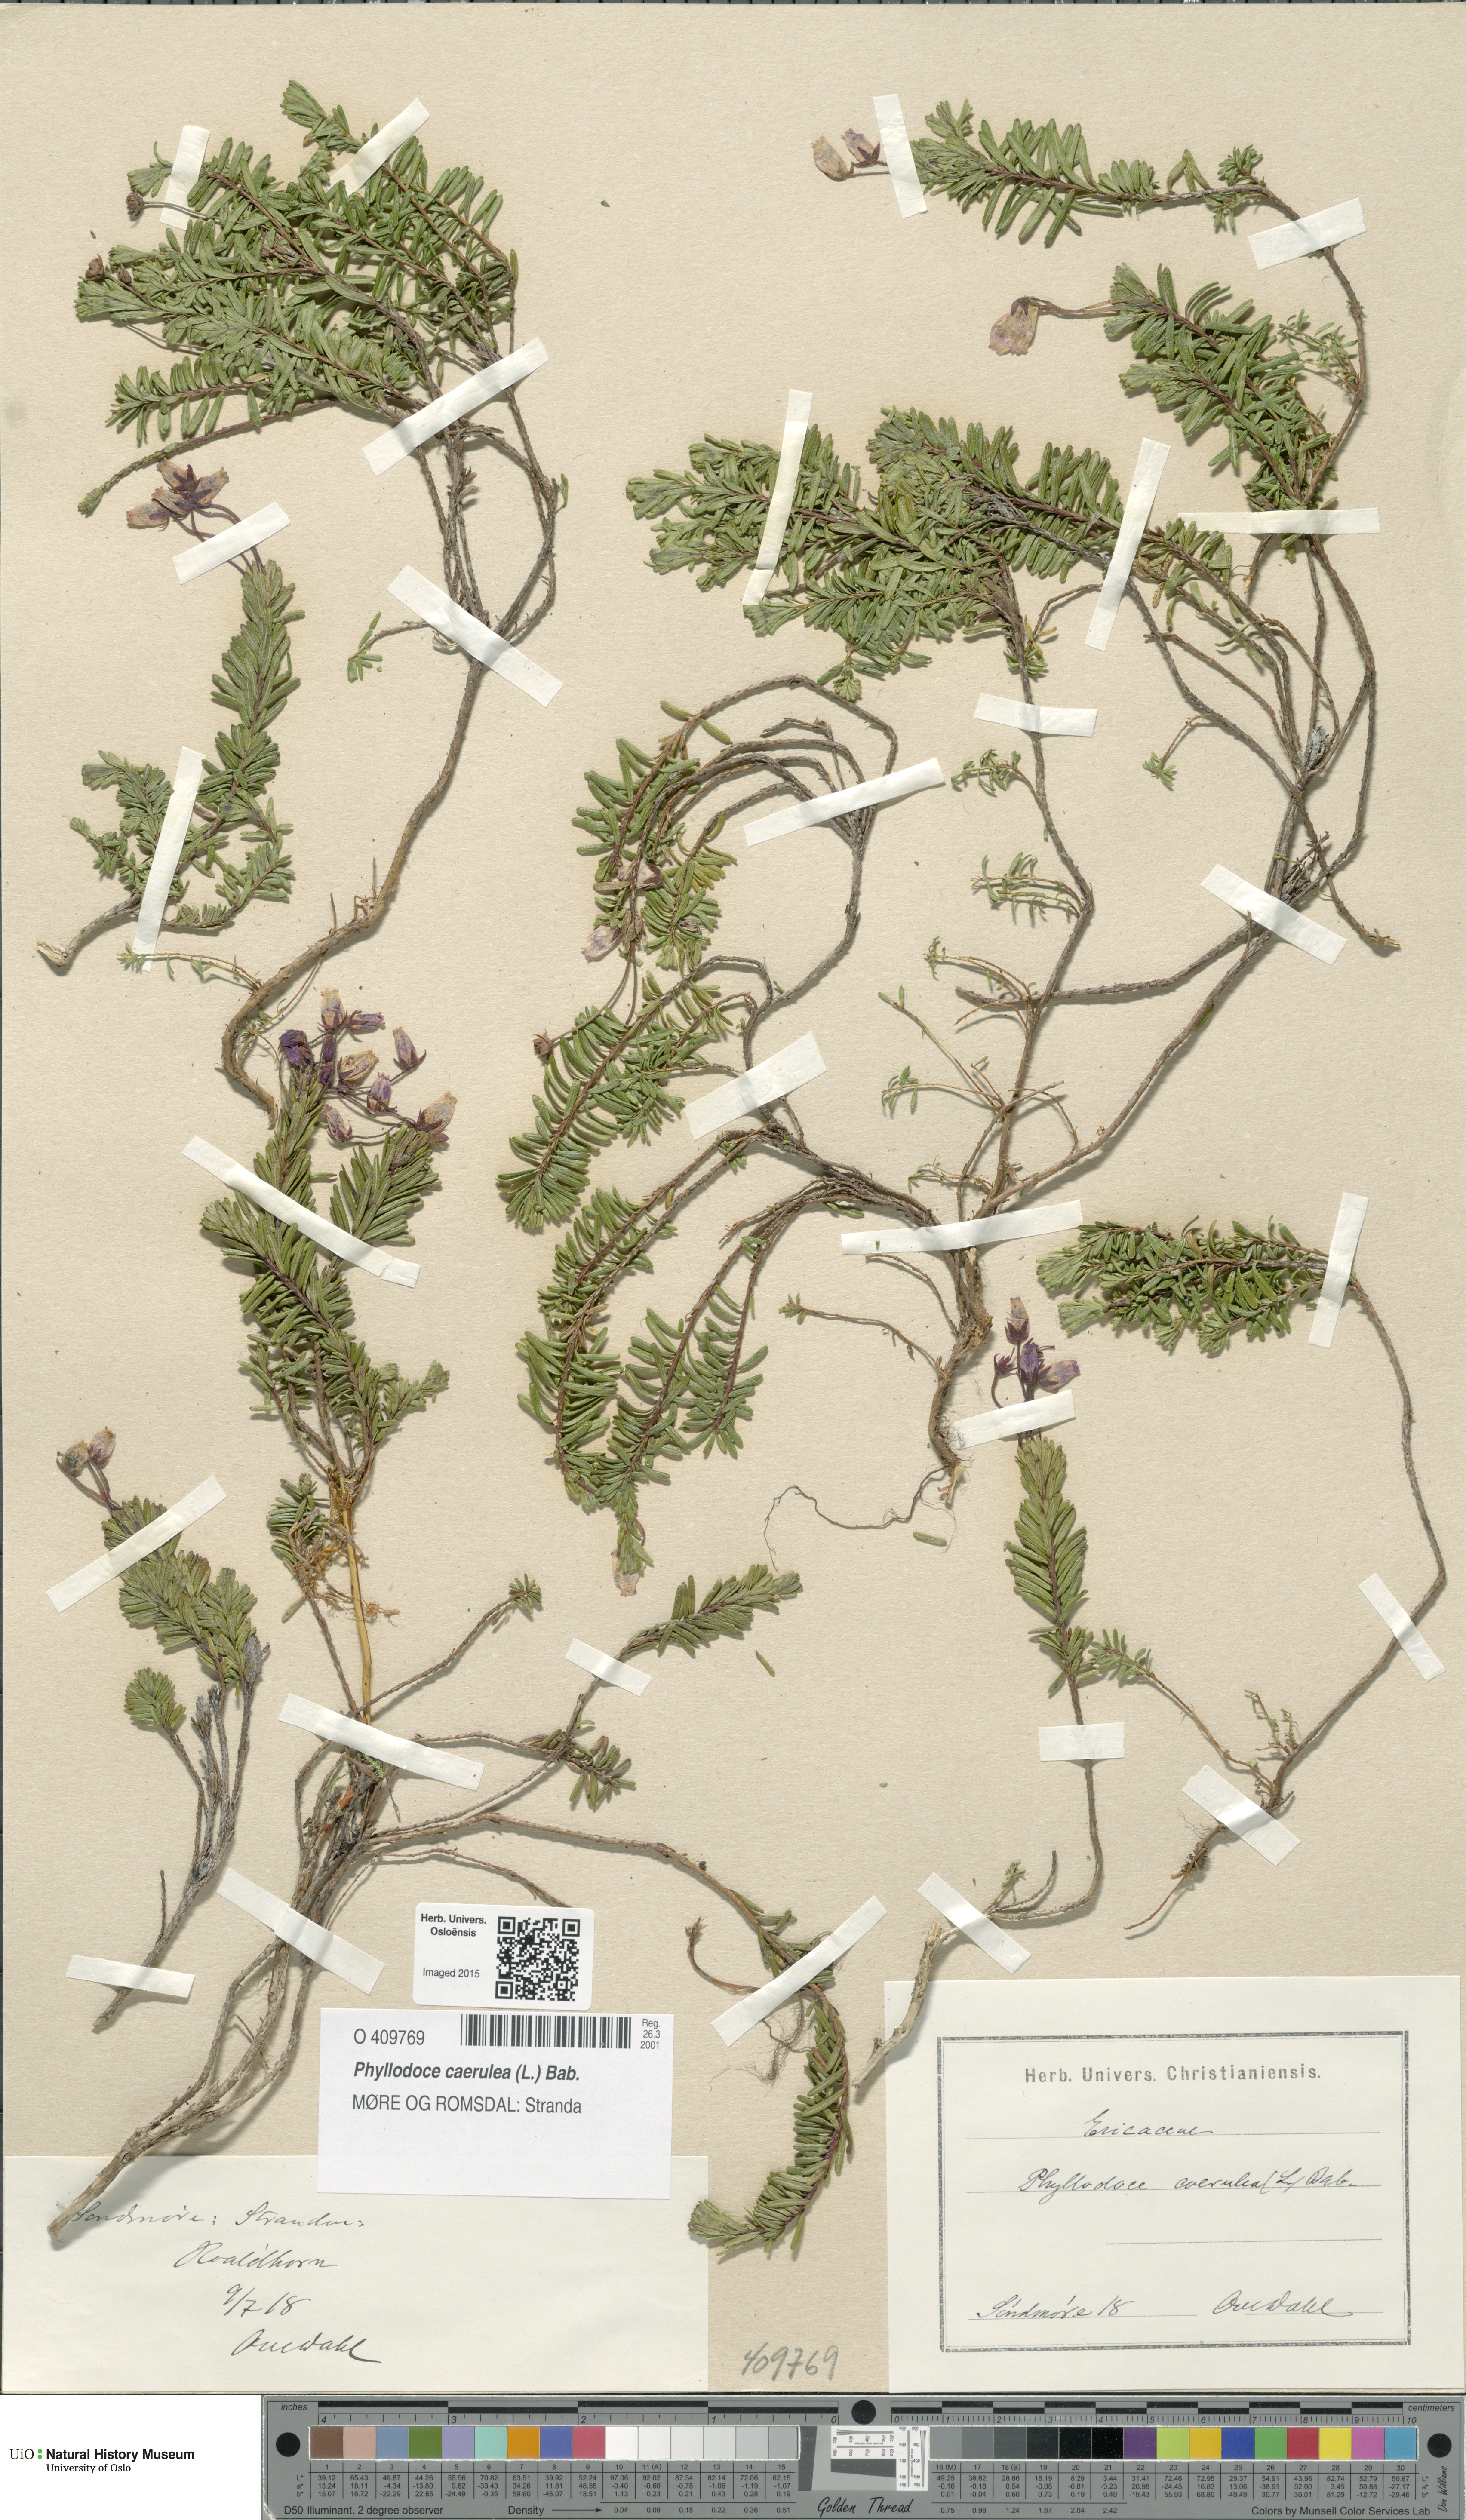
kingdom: Plantae
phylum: Tracheophyta
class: Magnoliopsida
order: Ericales
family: Ericaceae
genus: Phyllodoce
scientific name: Phyllodoce caerulea
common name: Blue heath
